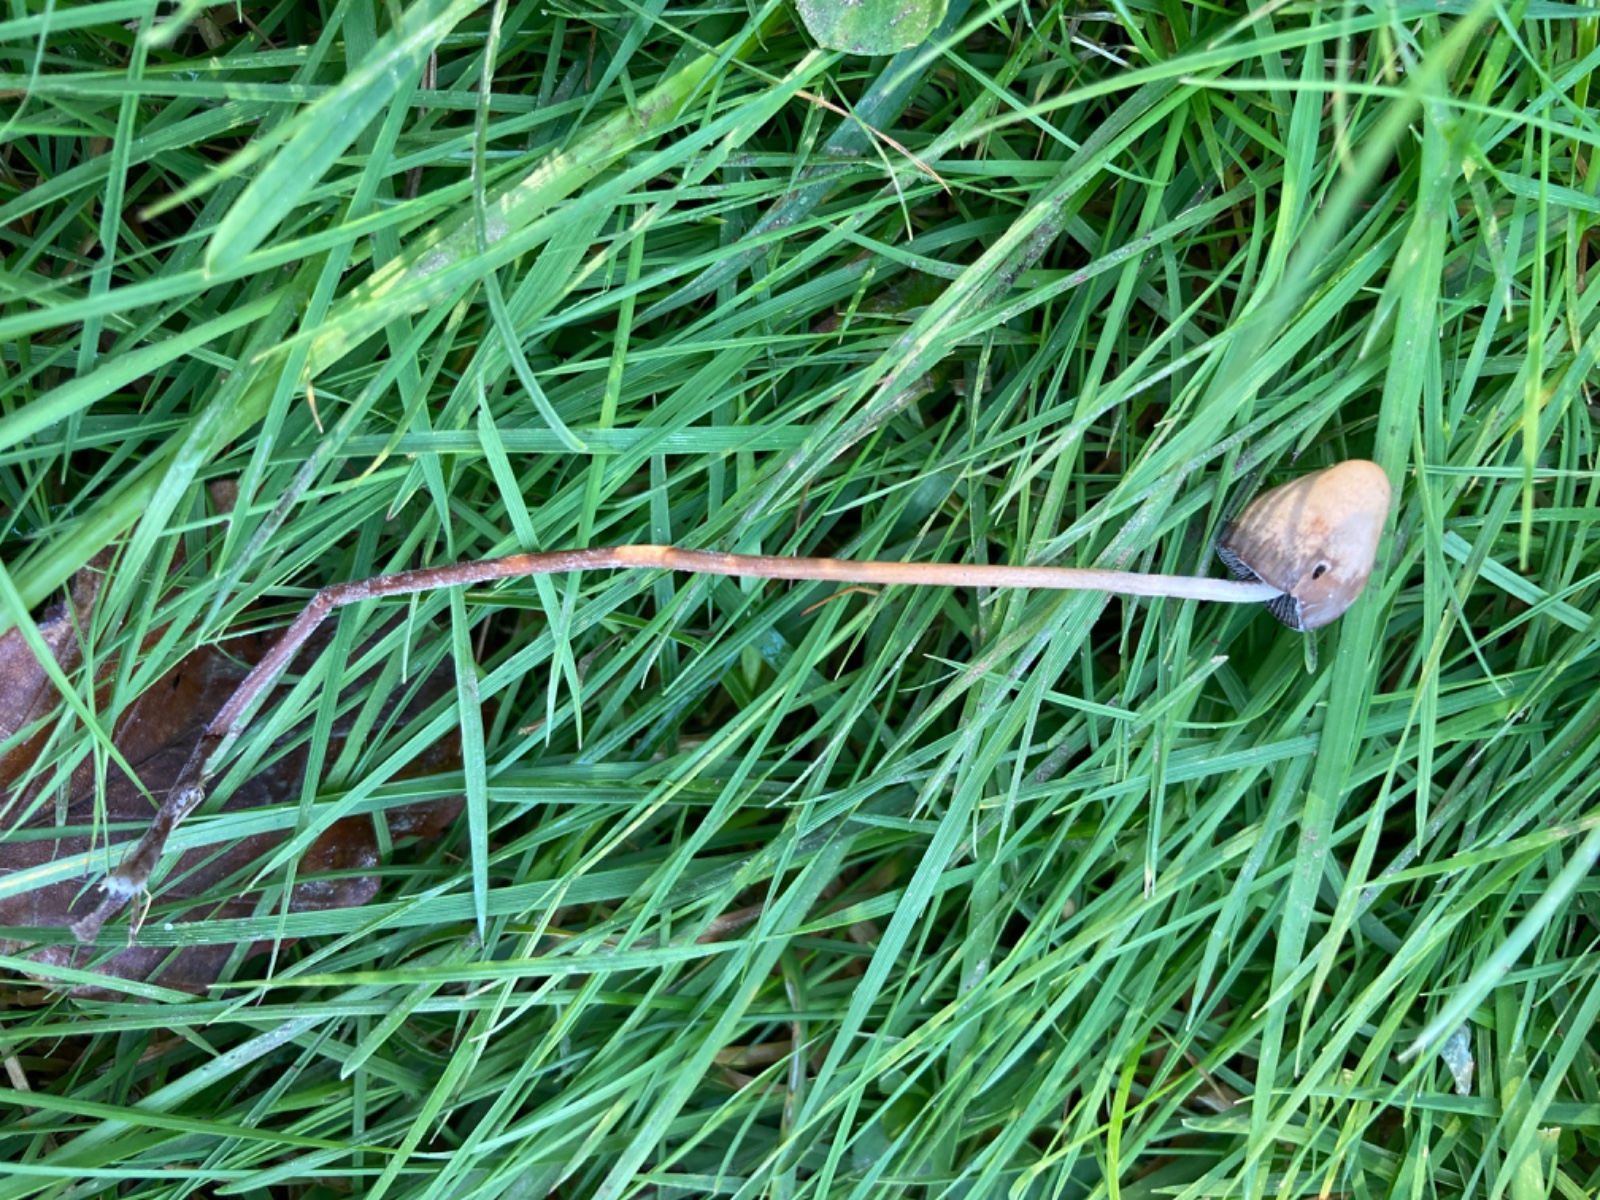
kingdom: Fungi
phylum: Basidiomycota
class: Agaricomycetes
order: Agaricales
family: Hymenogastraceae
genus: Psilocybe
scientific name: Psilocybe semilanceata
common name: spids nøgenhat
